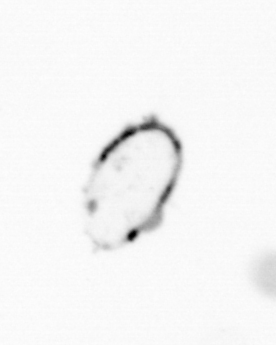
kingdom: Chromista
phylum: Ochrophyta
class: Bacillariophyceae
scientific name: Bacillariophyceae
